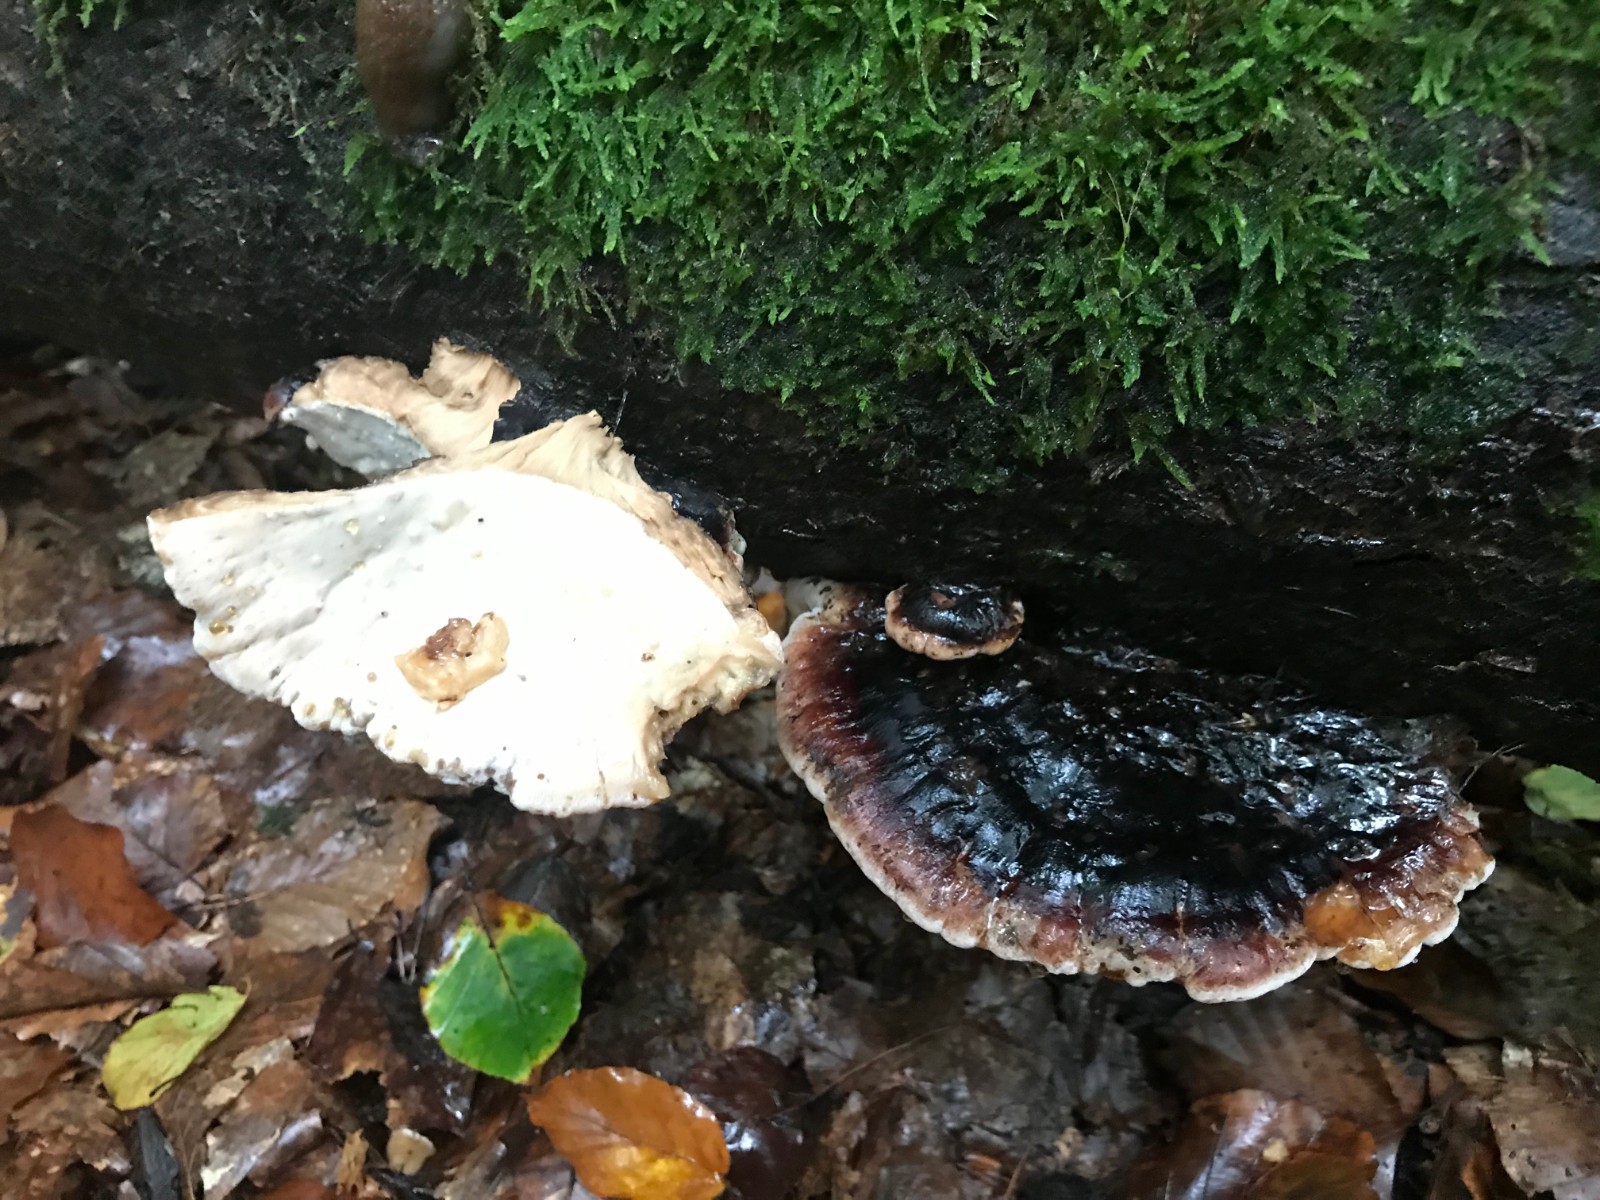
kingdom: Fungi
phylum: Basidiomycota
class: Agaricomycetes
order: Polyporales
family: Ischnodermataceae
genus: Ischnoderma
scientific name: Ischnoderma resinosum
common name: løv-tjæreporesvamp
